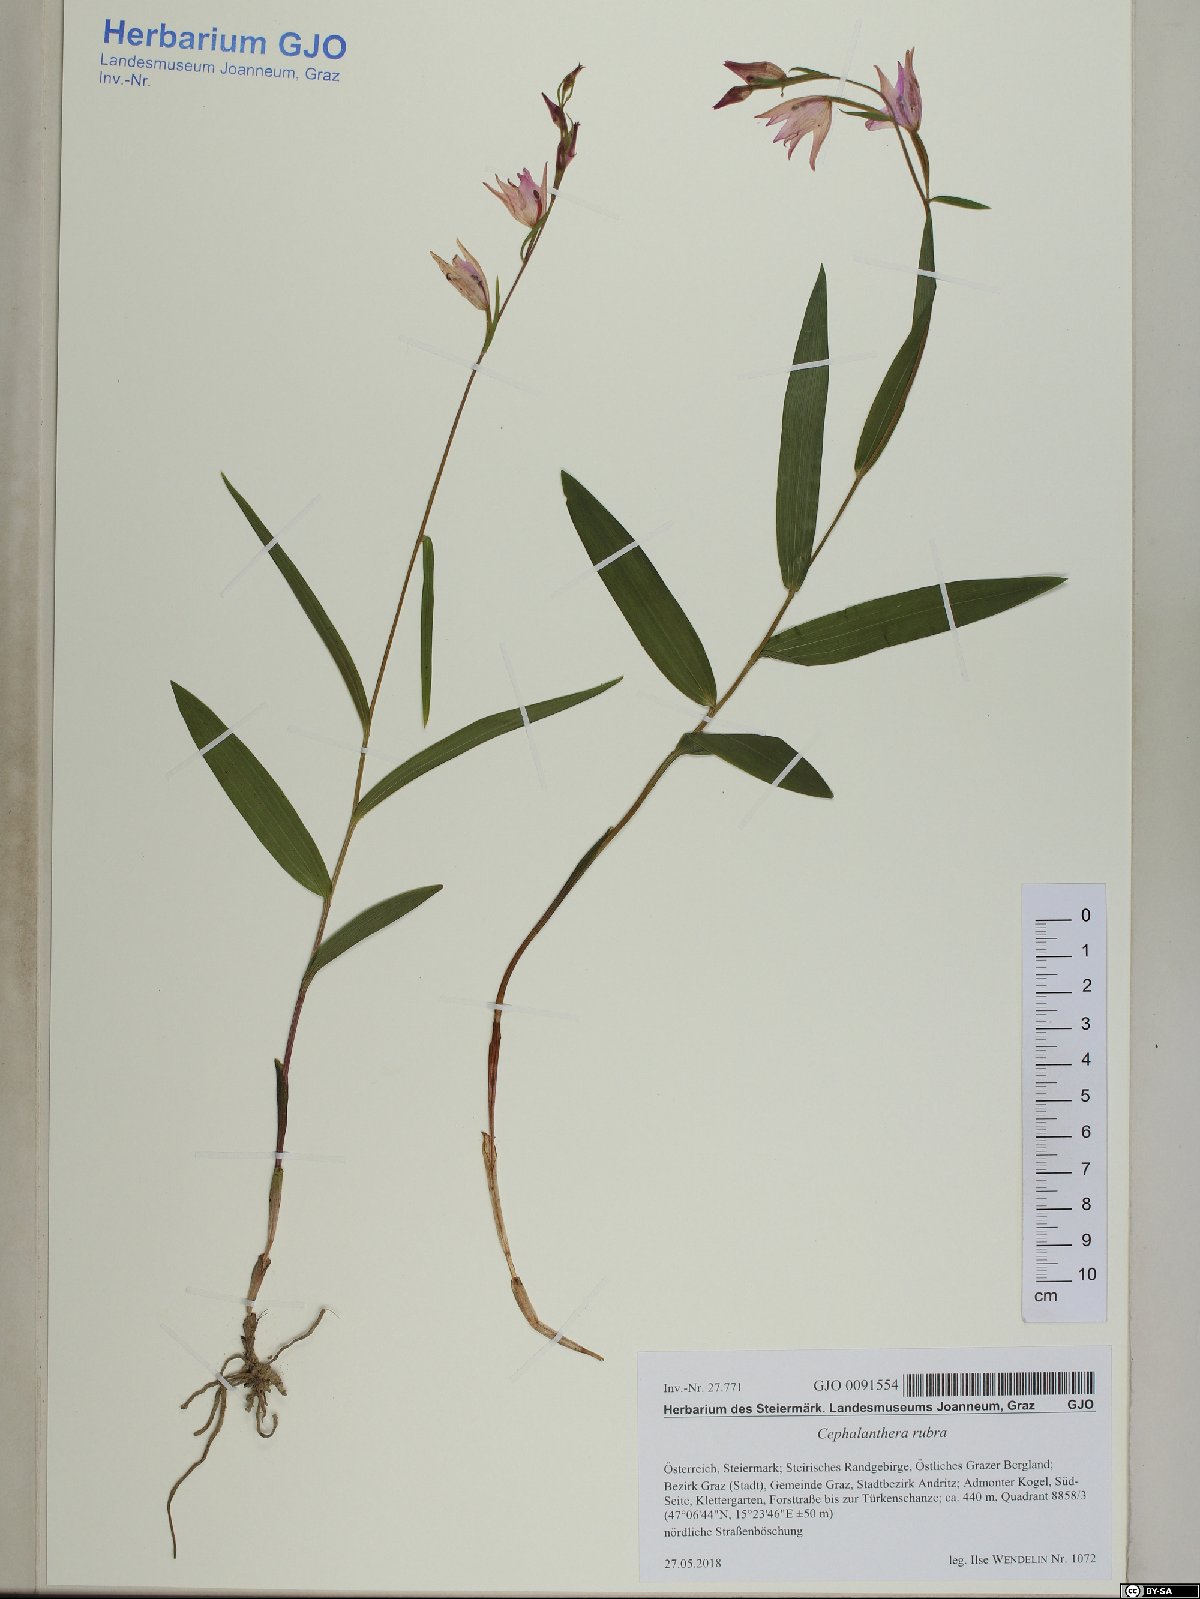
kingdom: Plantae
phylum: Tracheophyta
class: Liliopsida
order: Asparagales
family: Orchidaceae
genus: Cephalanthera
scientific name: Cephalanthera rubra
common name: Red helleborine
